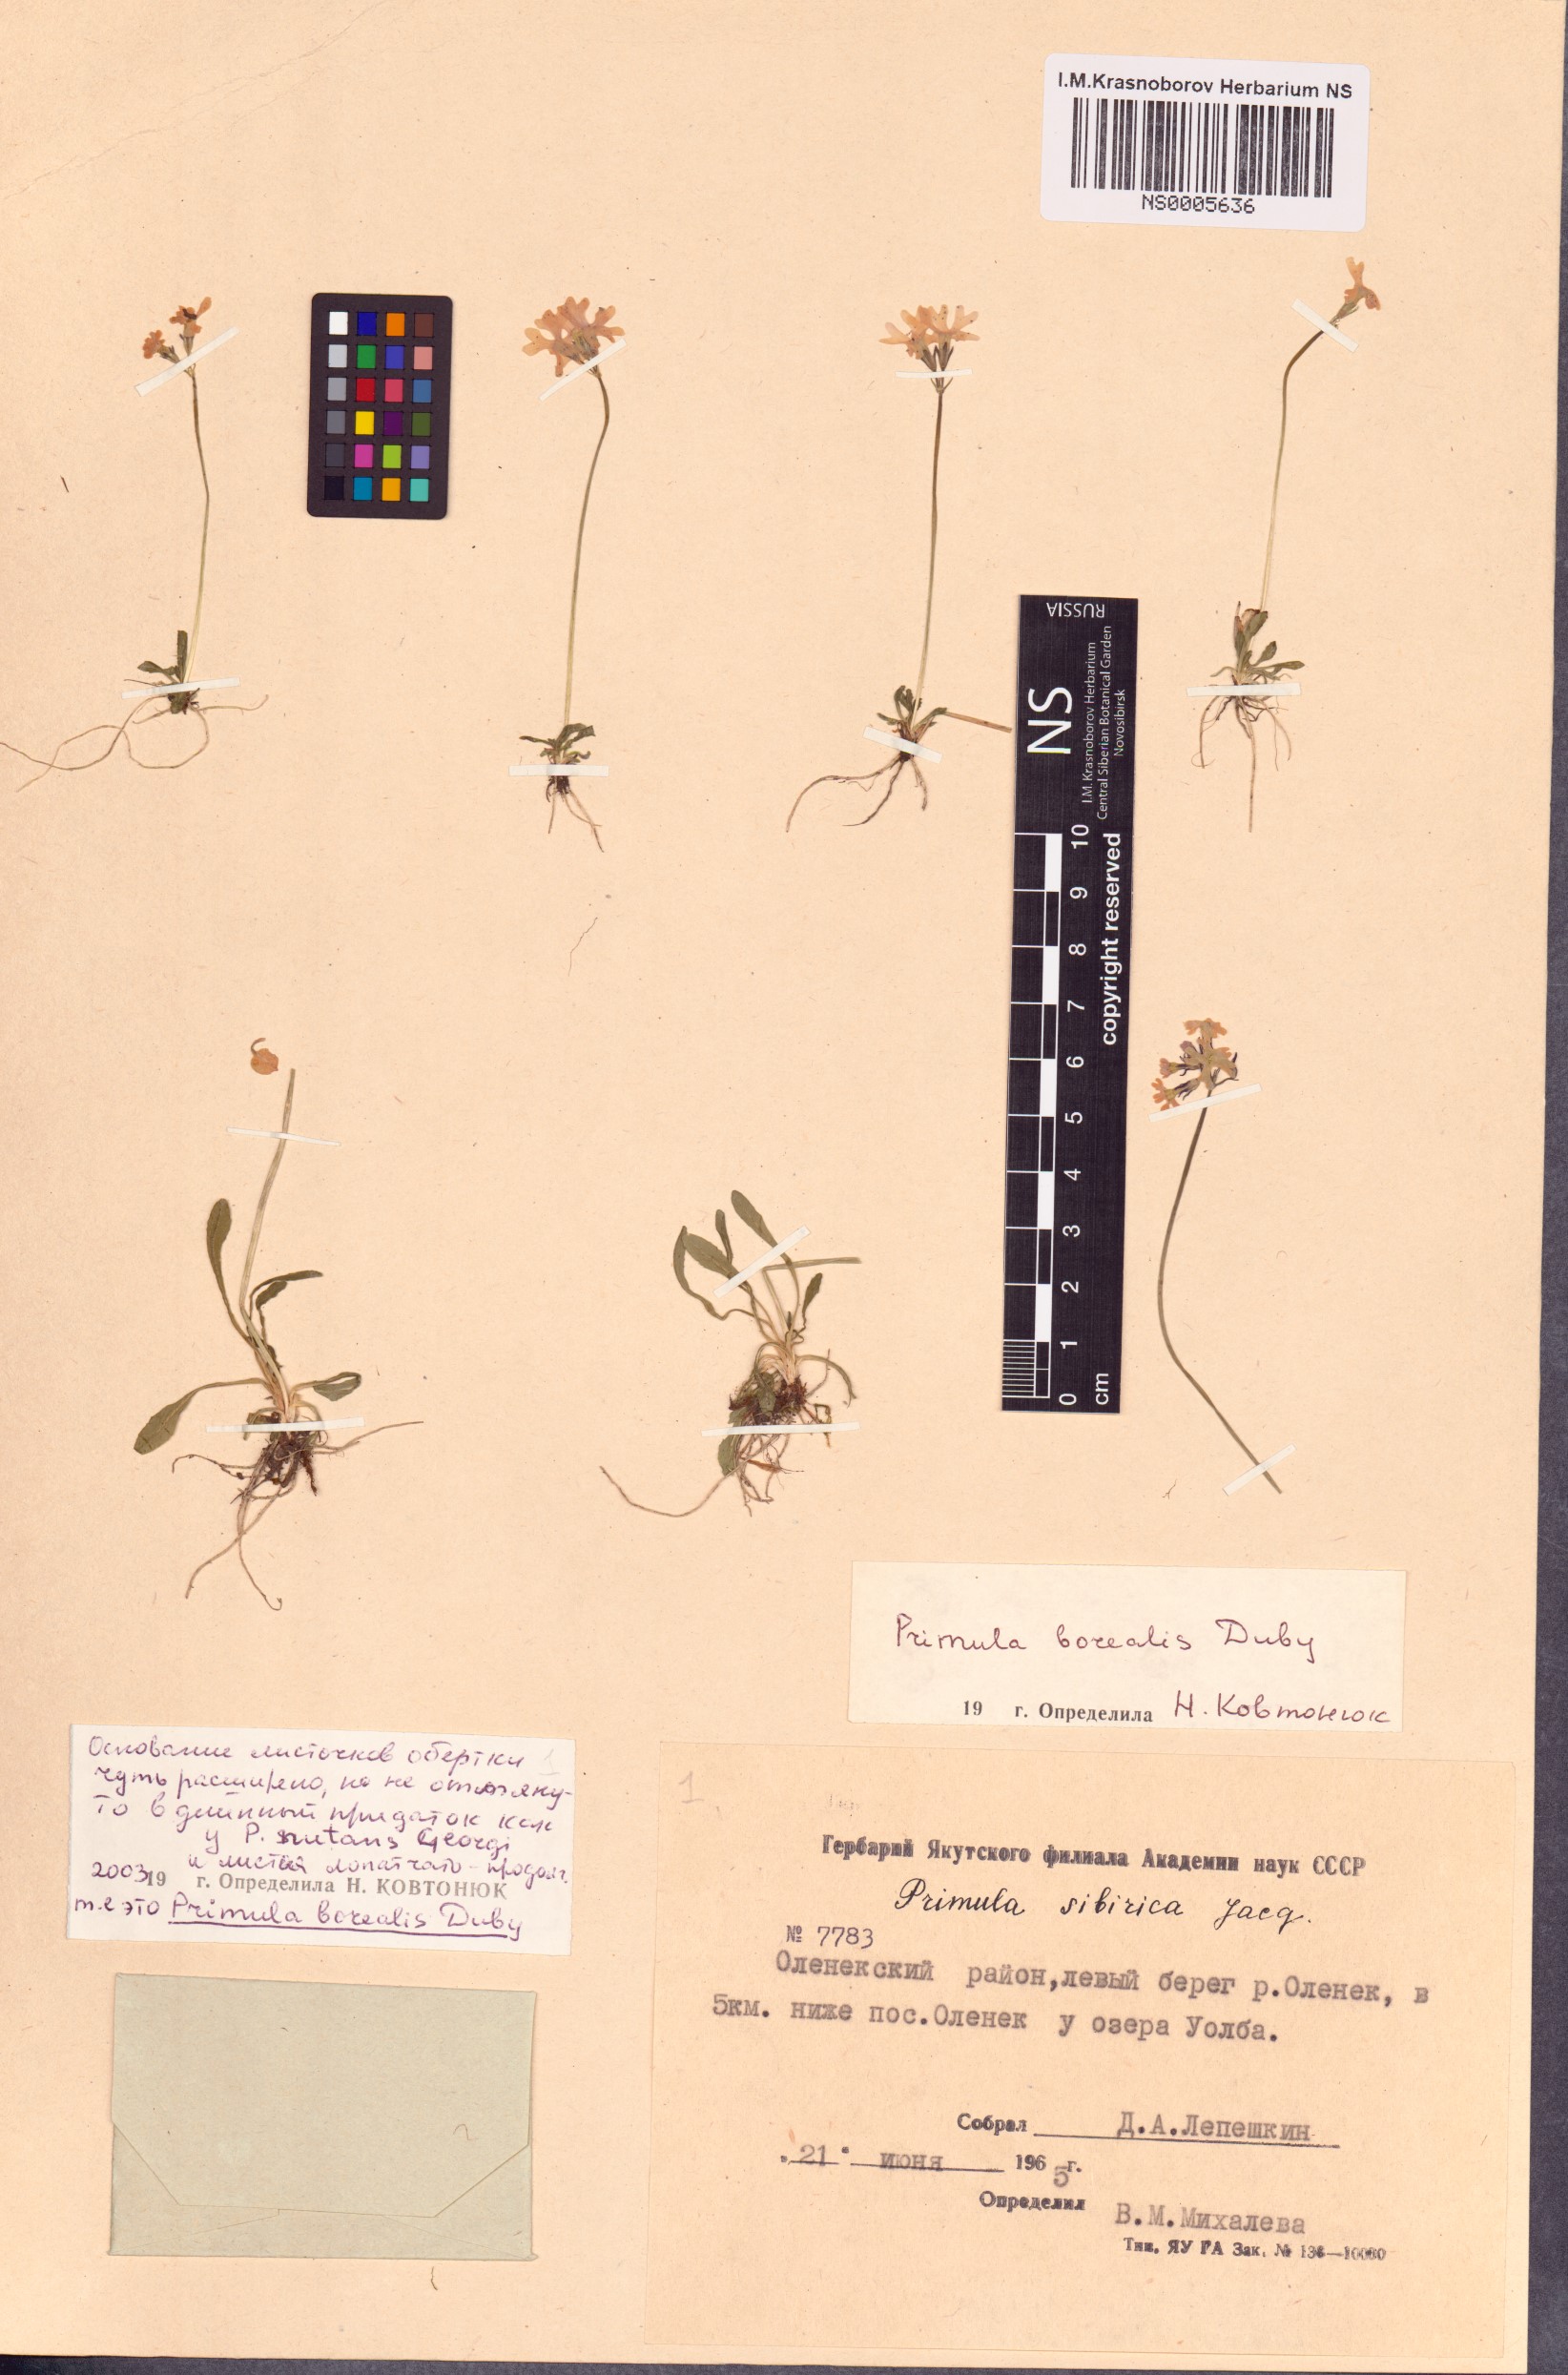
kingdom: Plantae
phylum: Tracheophyta
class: Magnoliopsida
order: Ericales
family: Primulaceae
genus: Primula
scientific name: Primula borealis
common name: Northern primrose
